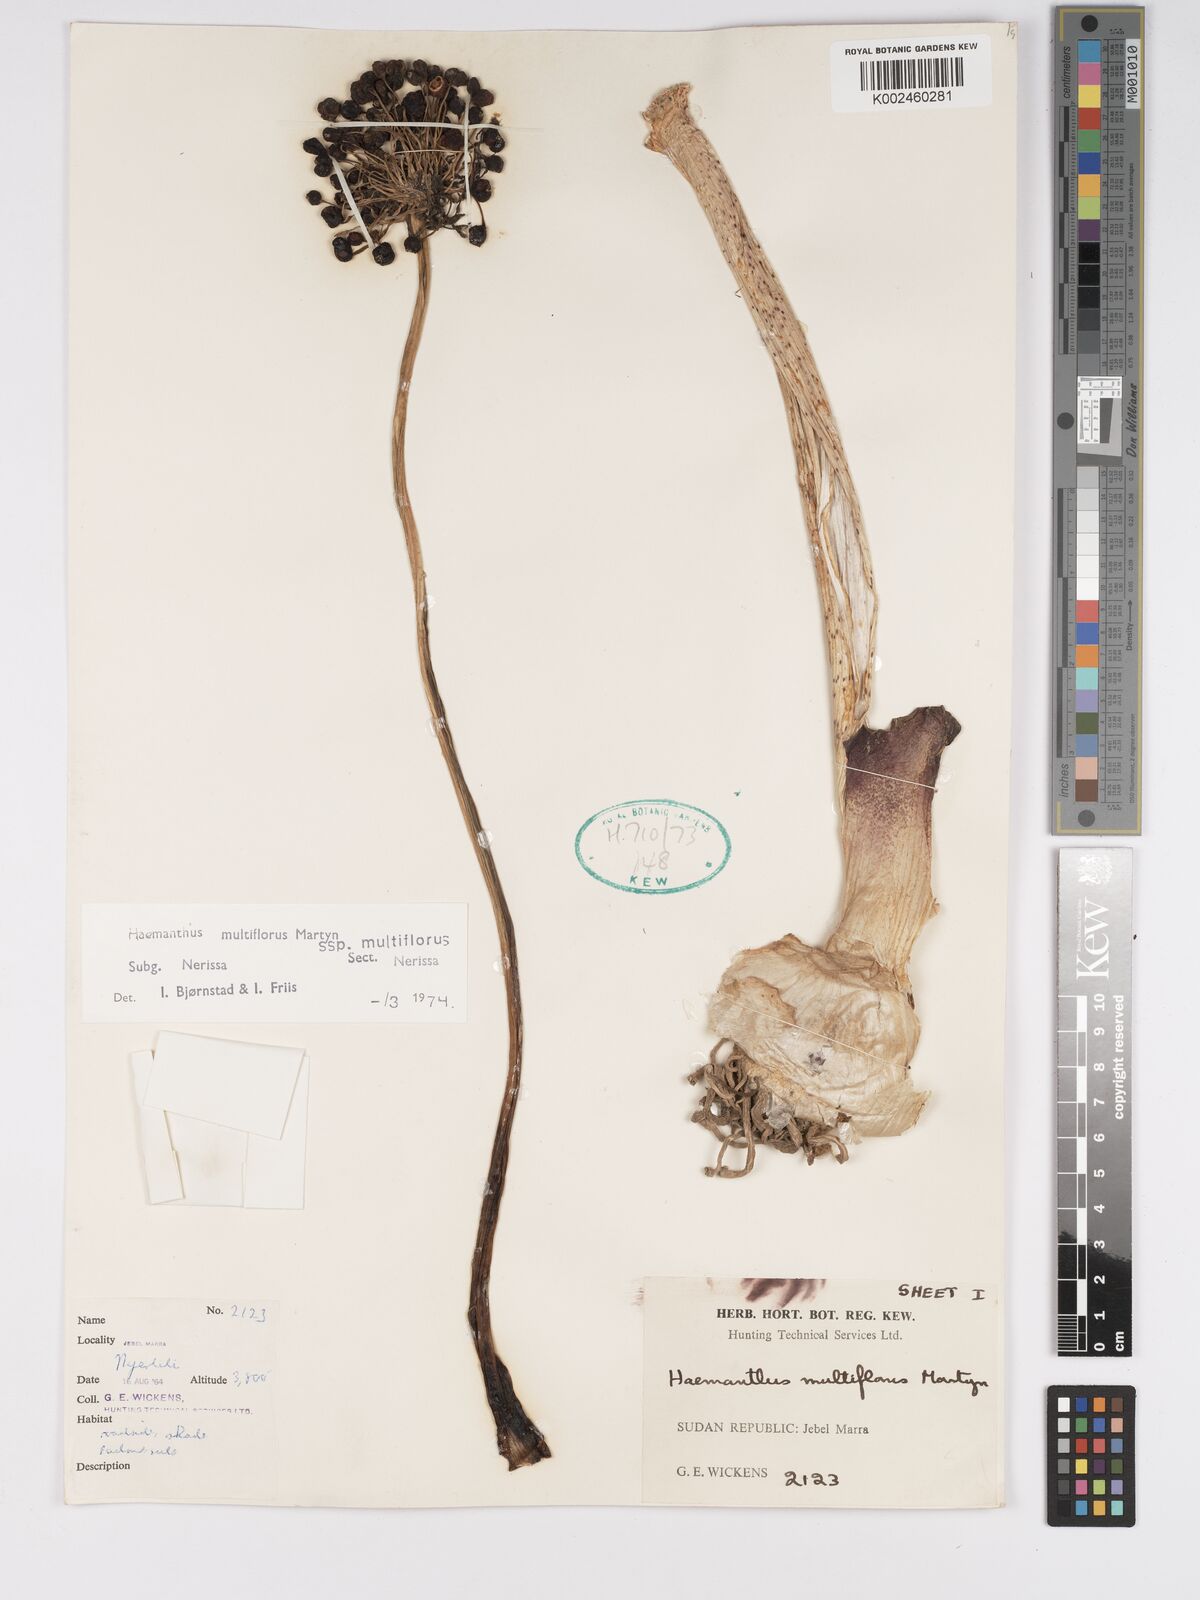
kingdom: Plantae
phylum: Tracheophyta
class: Liliopsida
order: Asparagales
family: Amaryllidaceae
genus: Scadoxus
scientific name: Scadoxus multiflorus
